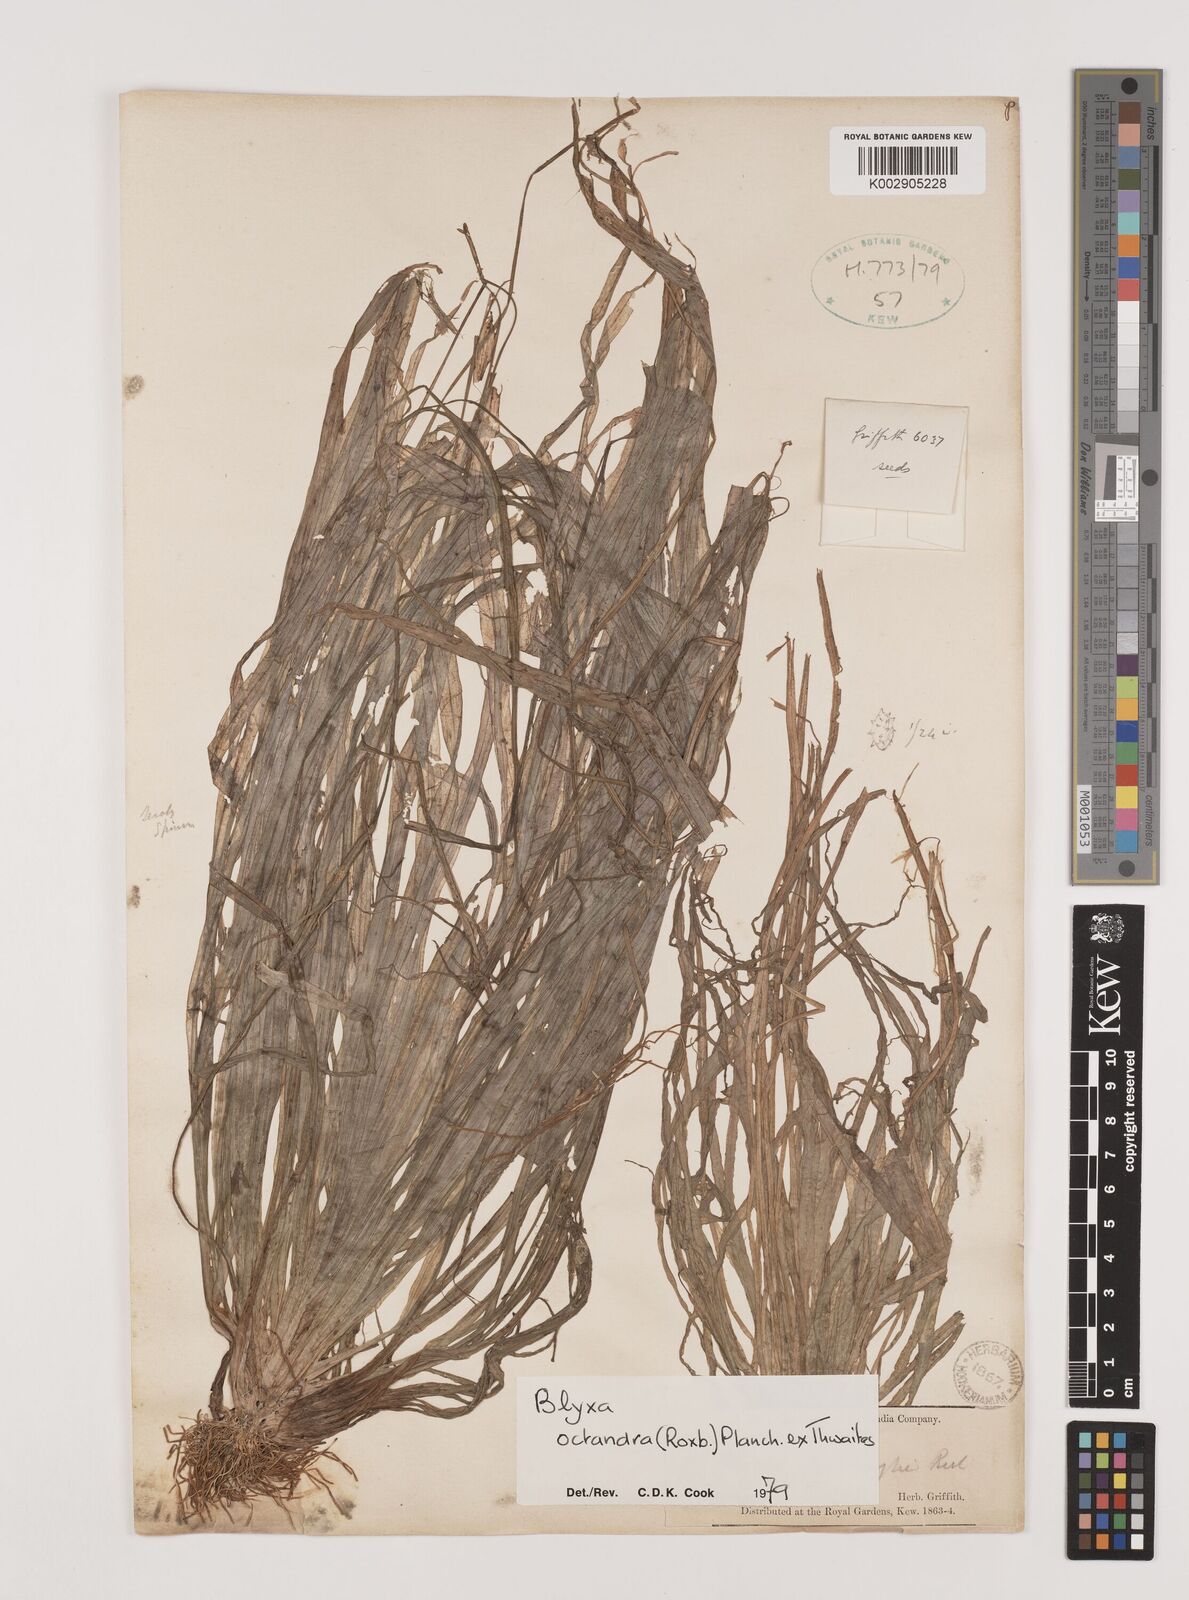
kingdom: Plantae
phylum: Tracheophyta
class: Liliopsida
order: Alismatales
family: Hydrocharitaceae
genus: Blyxa
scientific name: Blyxa octandra
